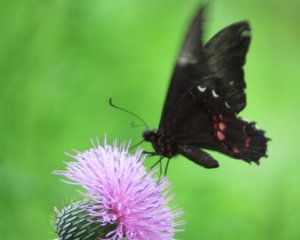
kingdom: Animalia
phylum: Arthropoda
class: Insecta
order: Lepidoptera
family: Papilionidae
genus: Papilio
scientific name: Papilio anchisiades
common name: Ruby-spotted Swallowtail
